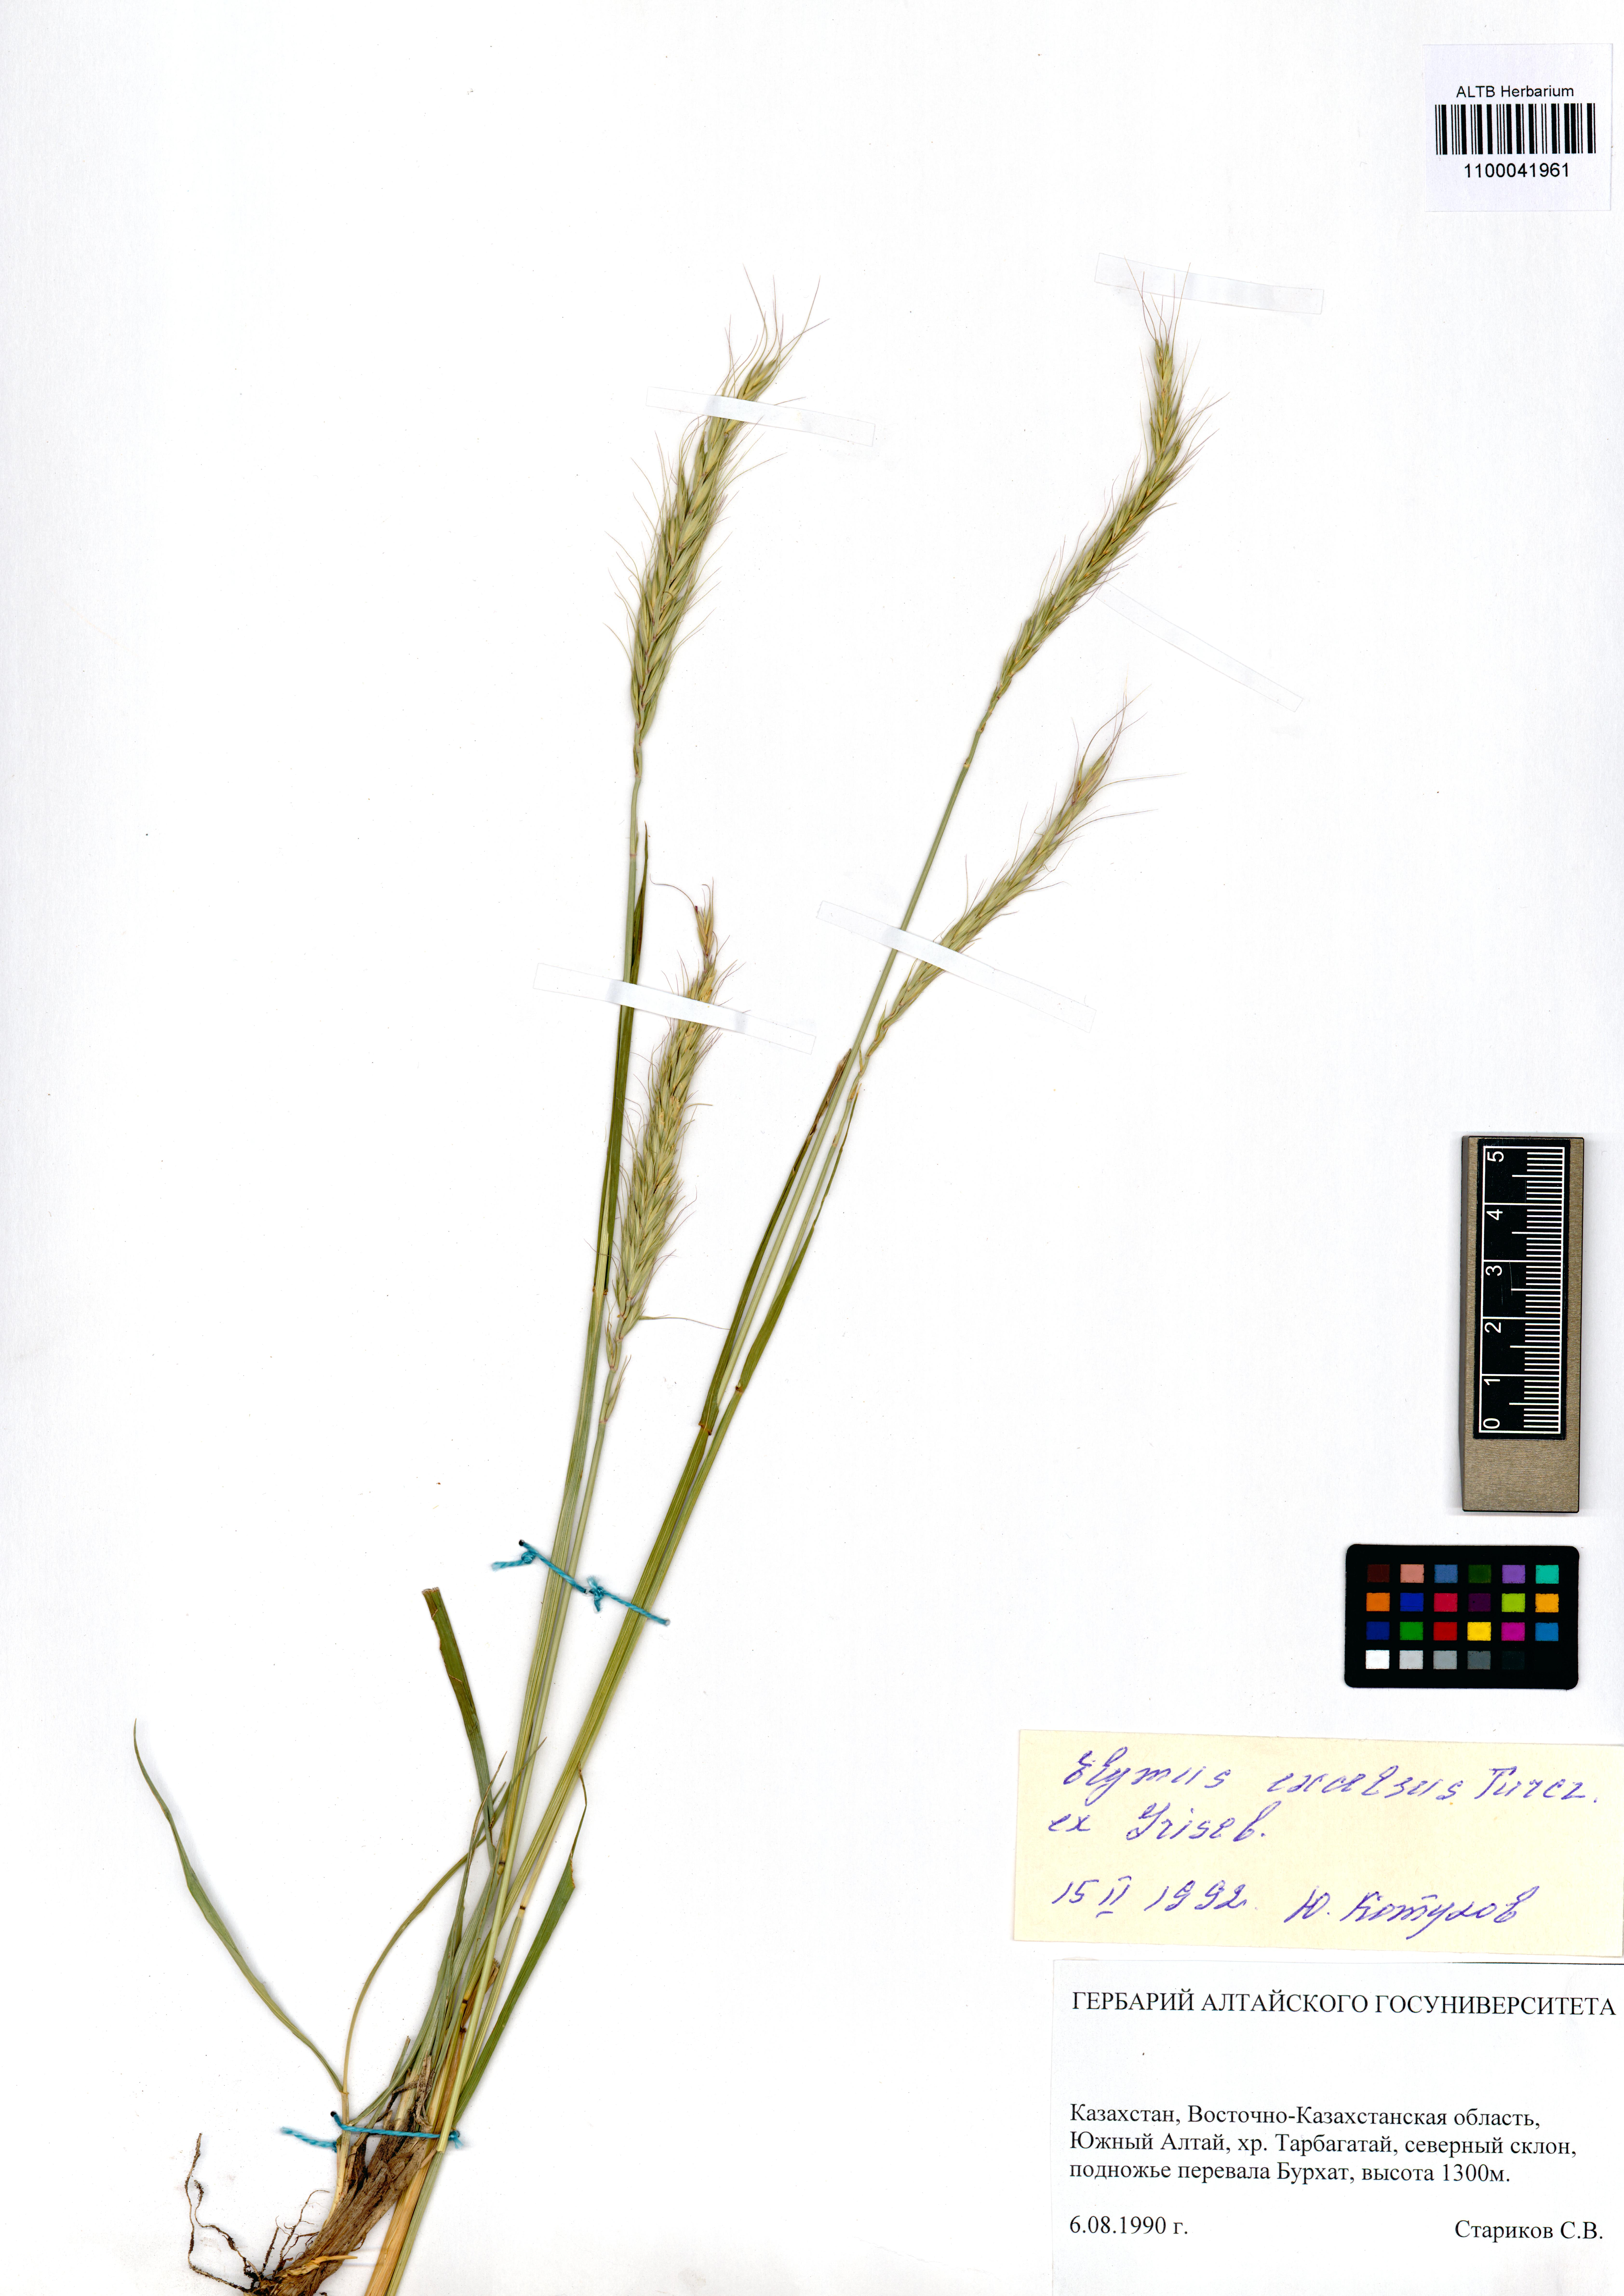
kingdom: Plantae
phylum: Tracheophyta
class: Liliopsida
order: Poales
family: Poaceae
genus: Elymus
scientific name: Elymus dahuricus
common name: Dahurian wild rye
